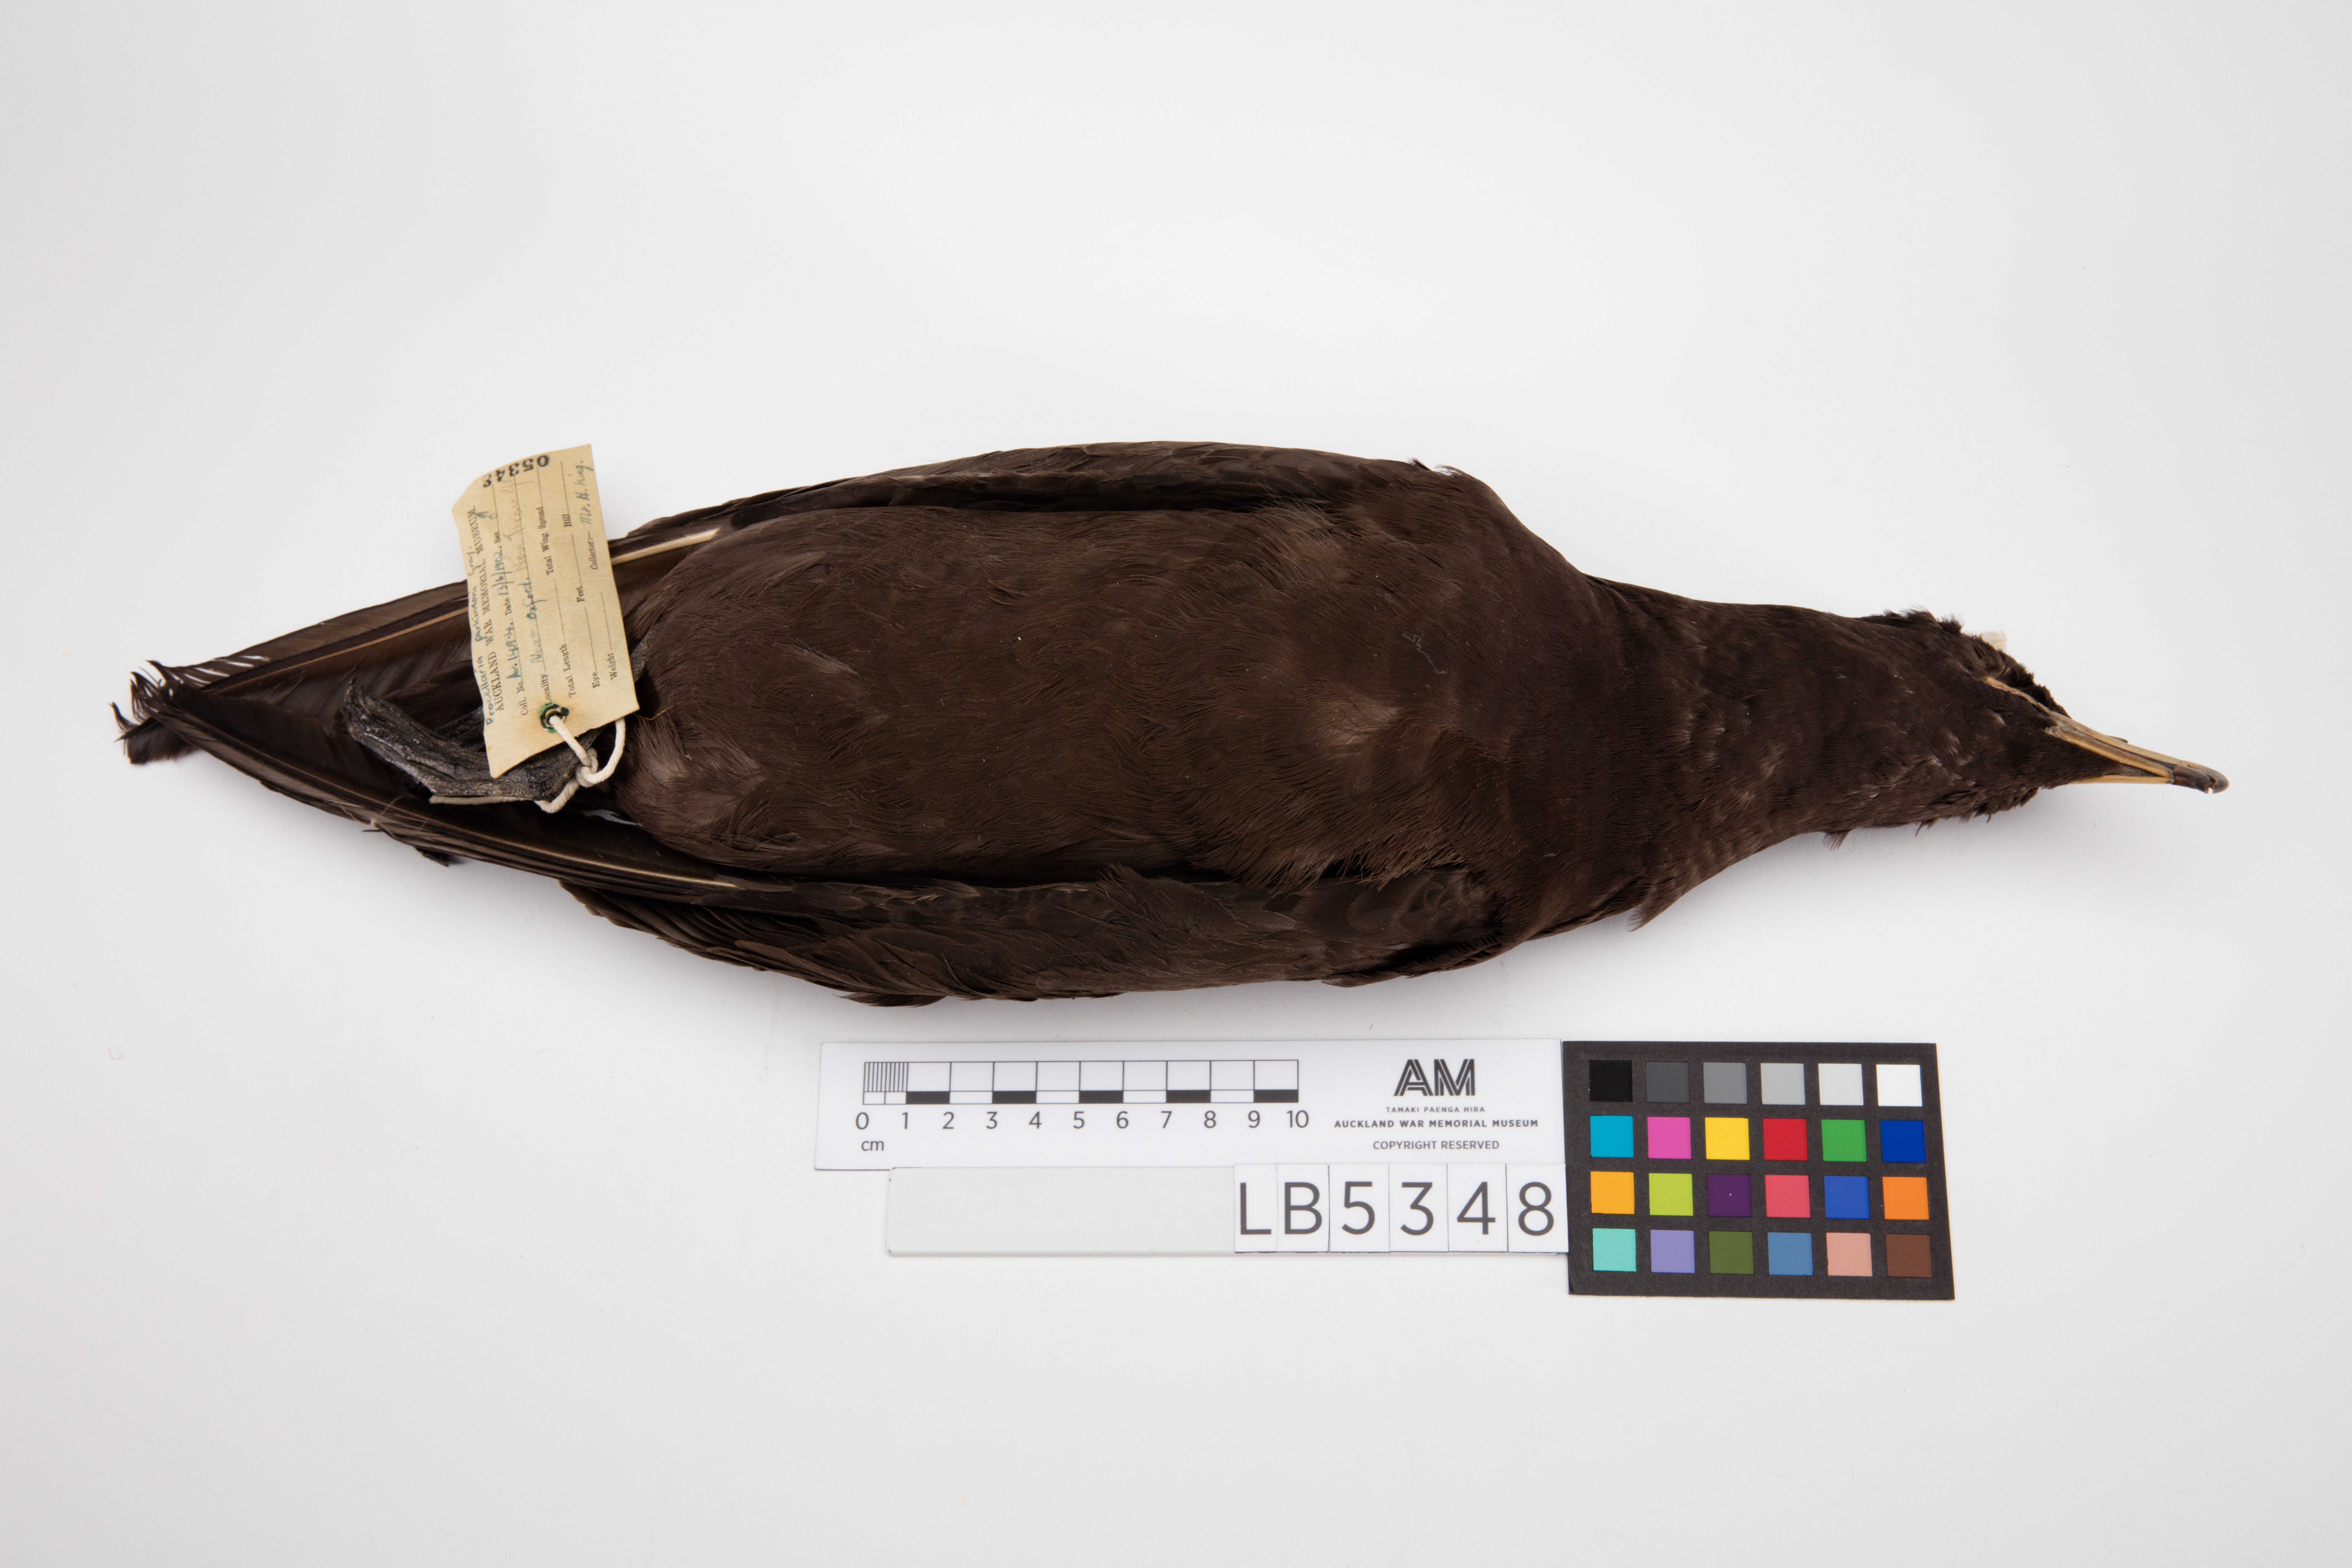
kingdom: Animalia
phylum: Chordata
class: Aves
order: Procellariiformes
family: Procellariidae
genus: Procellaria
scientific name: Procellaria parkinsoni
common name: Black petrel
